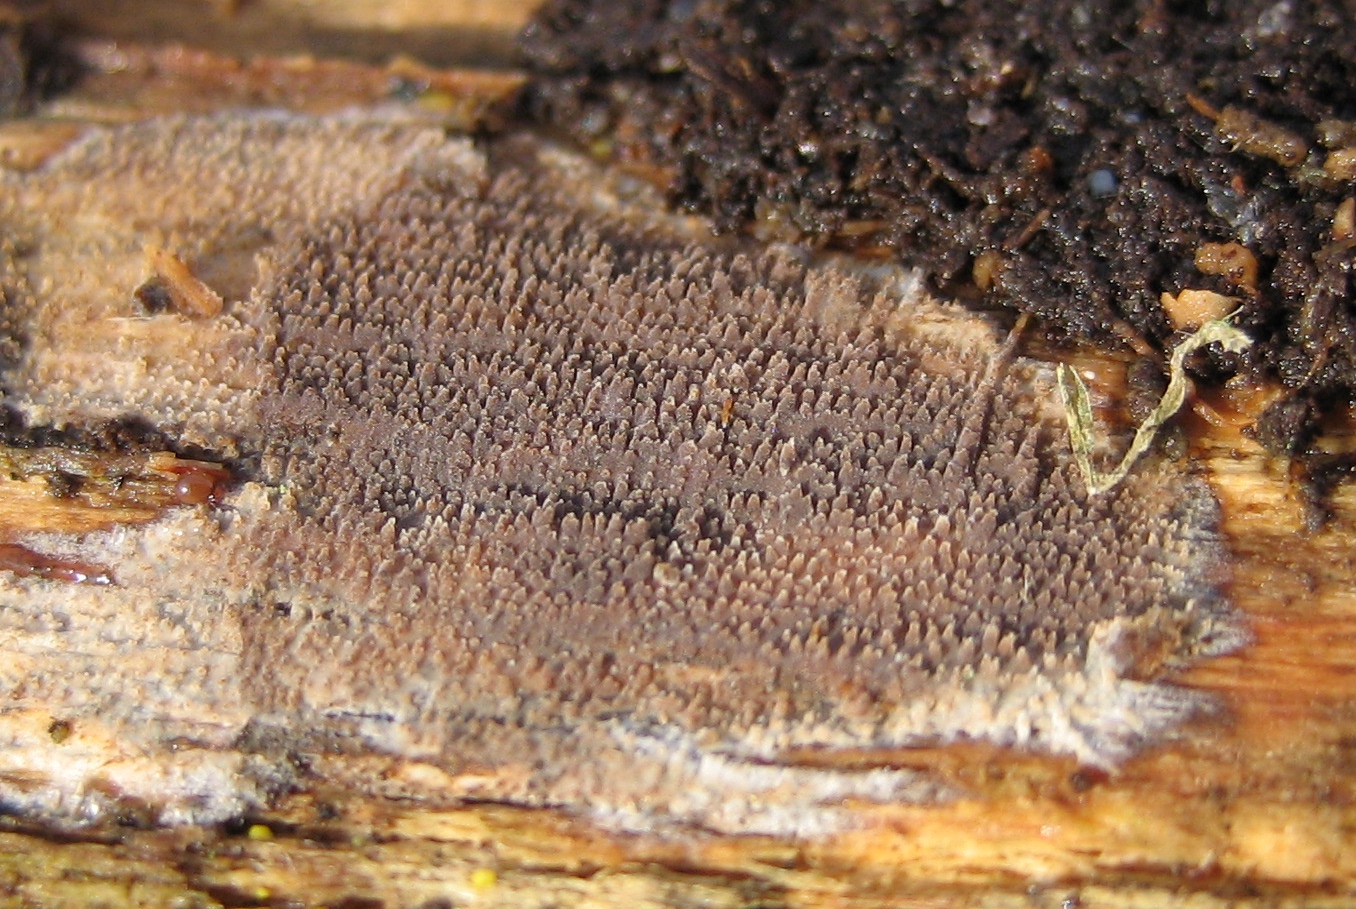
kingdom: Fungi
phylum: Basidiomycota
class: Agaricomycetes
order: Corticiales
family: Corticiaceae
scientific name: Corticiaceae
